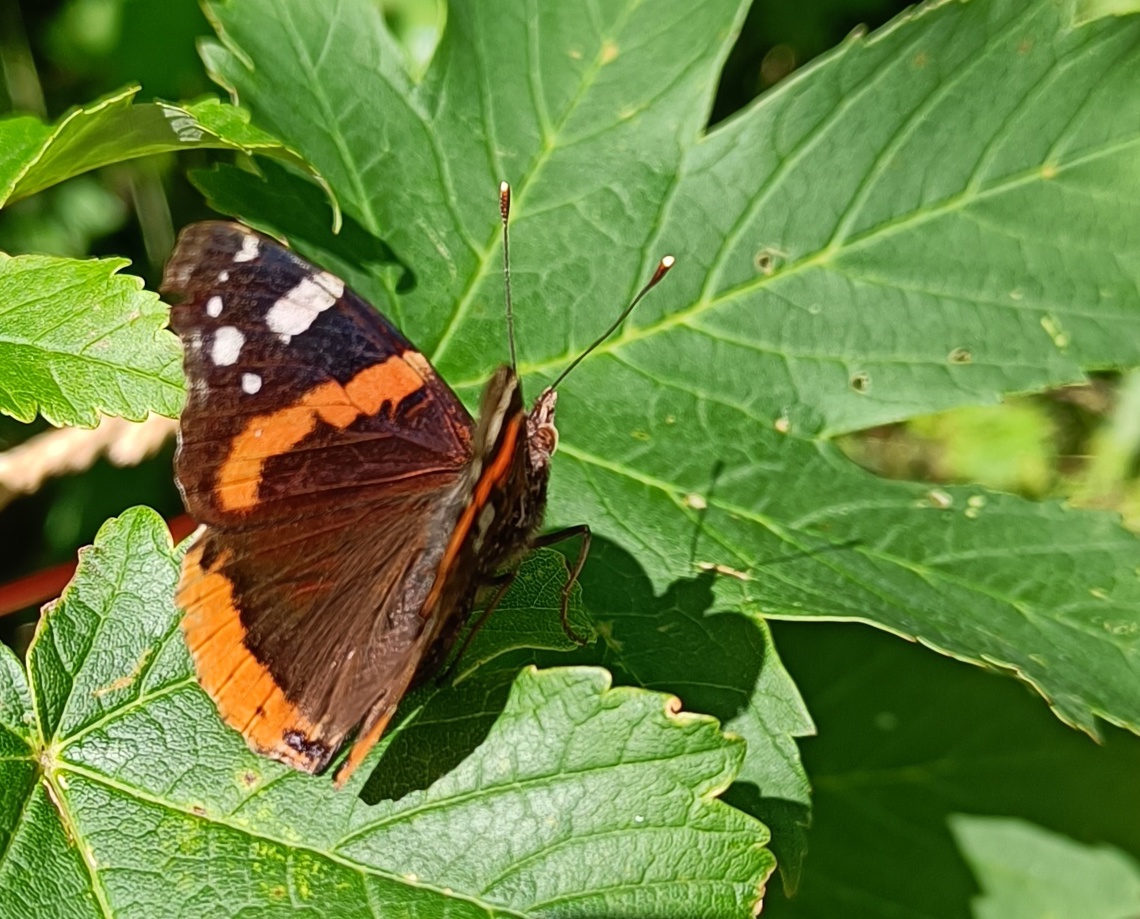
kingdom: Animalia
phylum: Arthropoda
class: Insecta
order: Lepidoptera
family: Nymphalidae
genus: Vanessa
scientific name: Vanessa atalanta
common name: Admiral
